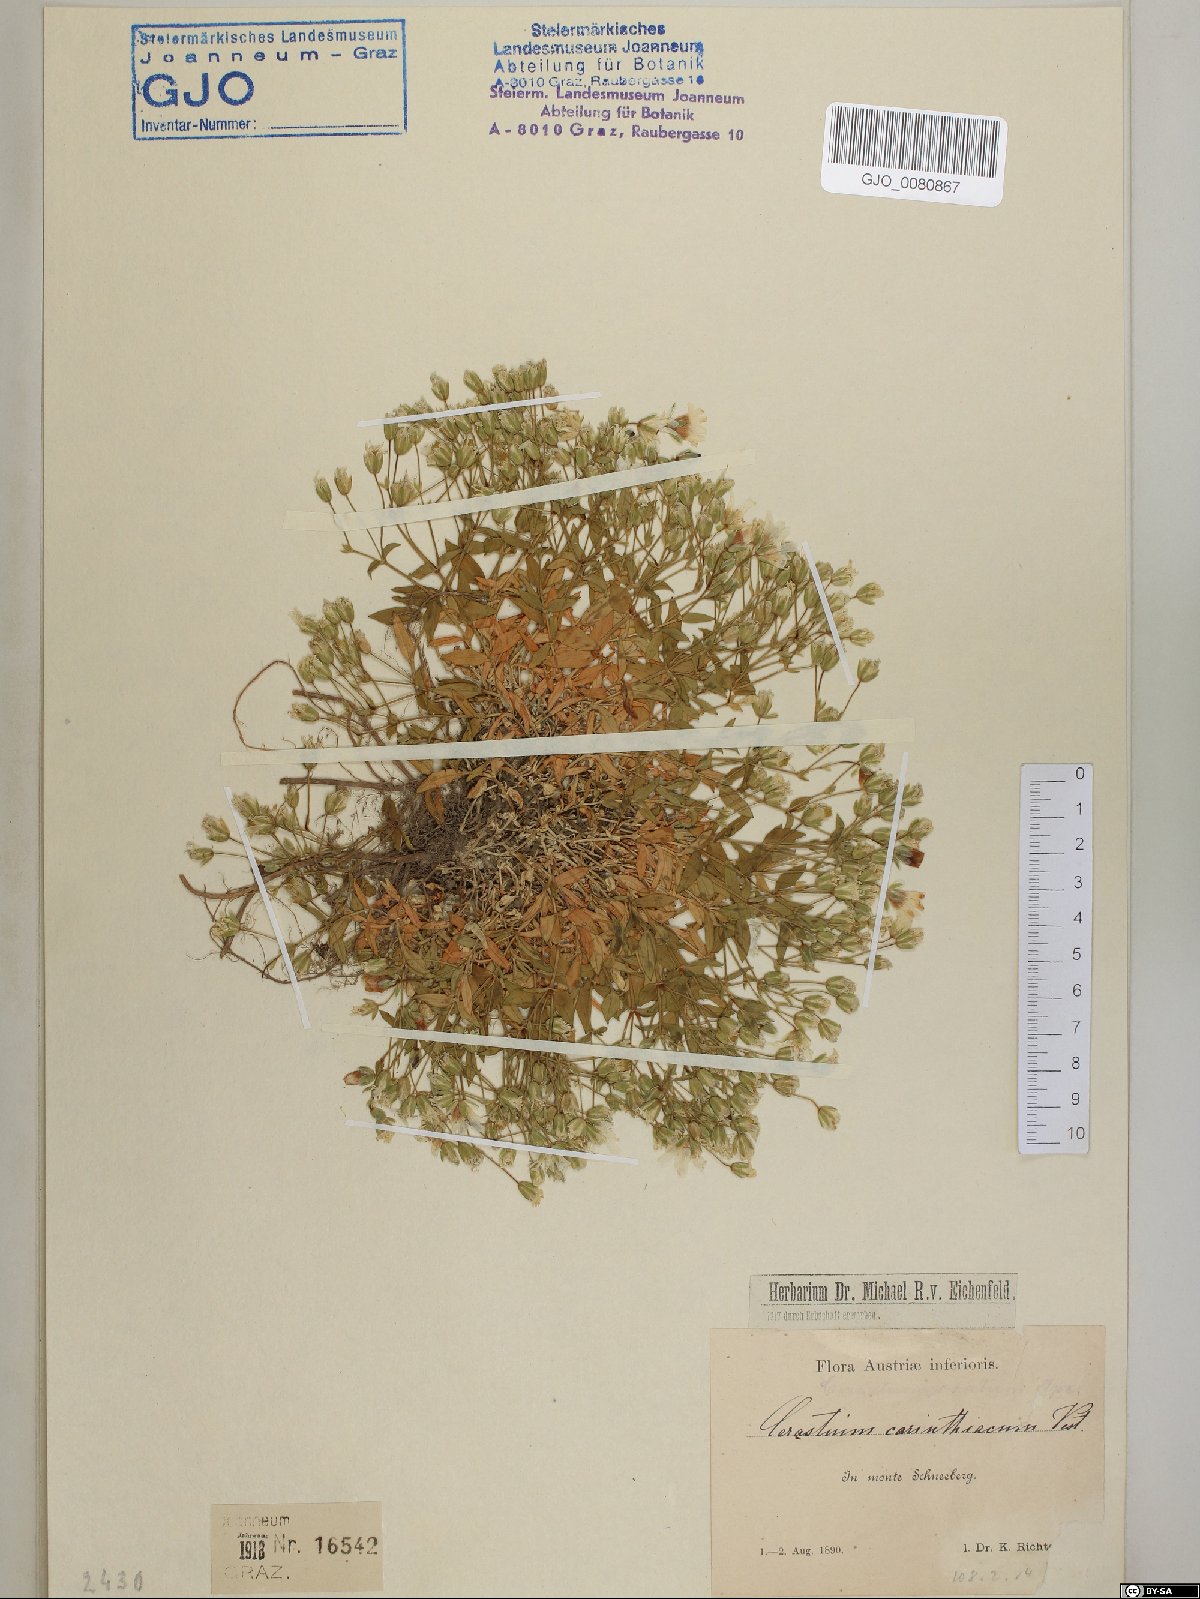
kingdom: Plantae
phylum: Tracheophyta
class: Magnoliopsida
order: Caryophyllales
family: Caryophyllaceae
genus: Cerastium
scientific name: Cerastium carinthiacum
